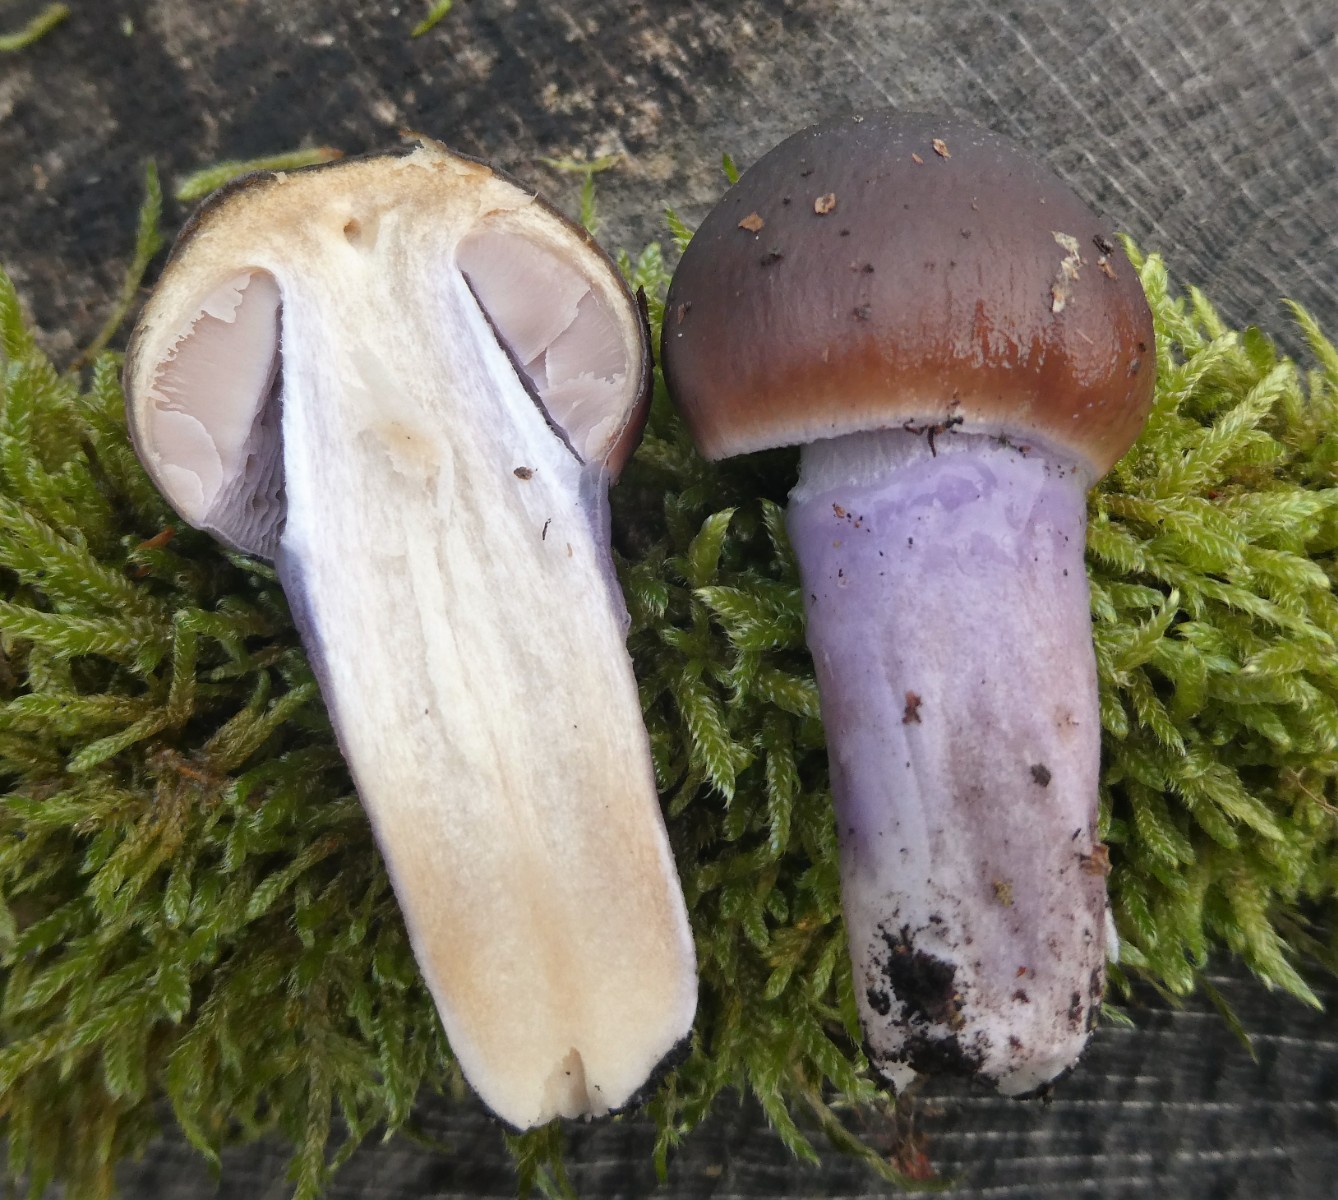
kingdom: Fungi
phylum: Basidiomycota
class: Agaricomycetes
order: Agaricales
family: Cortinariaceae
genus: Cortinarius
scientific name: Cortinarius elatior
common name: høj slørhat
